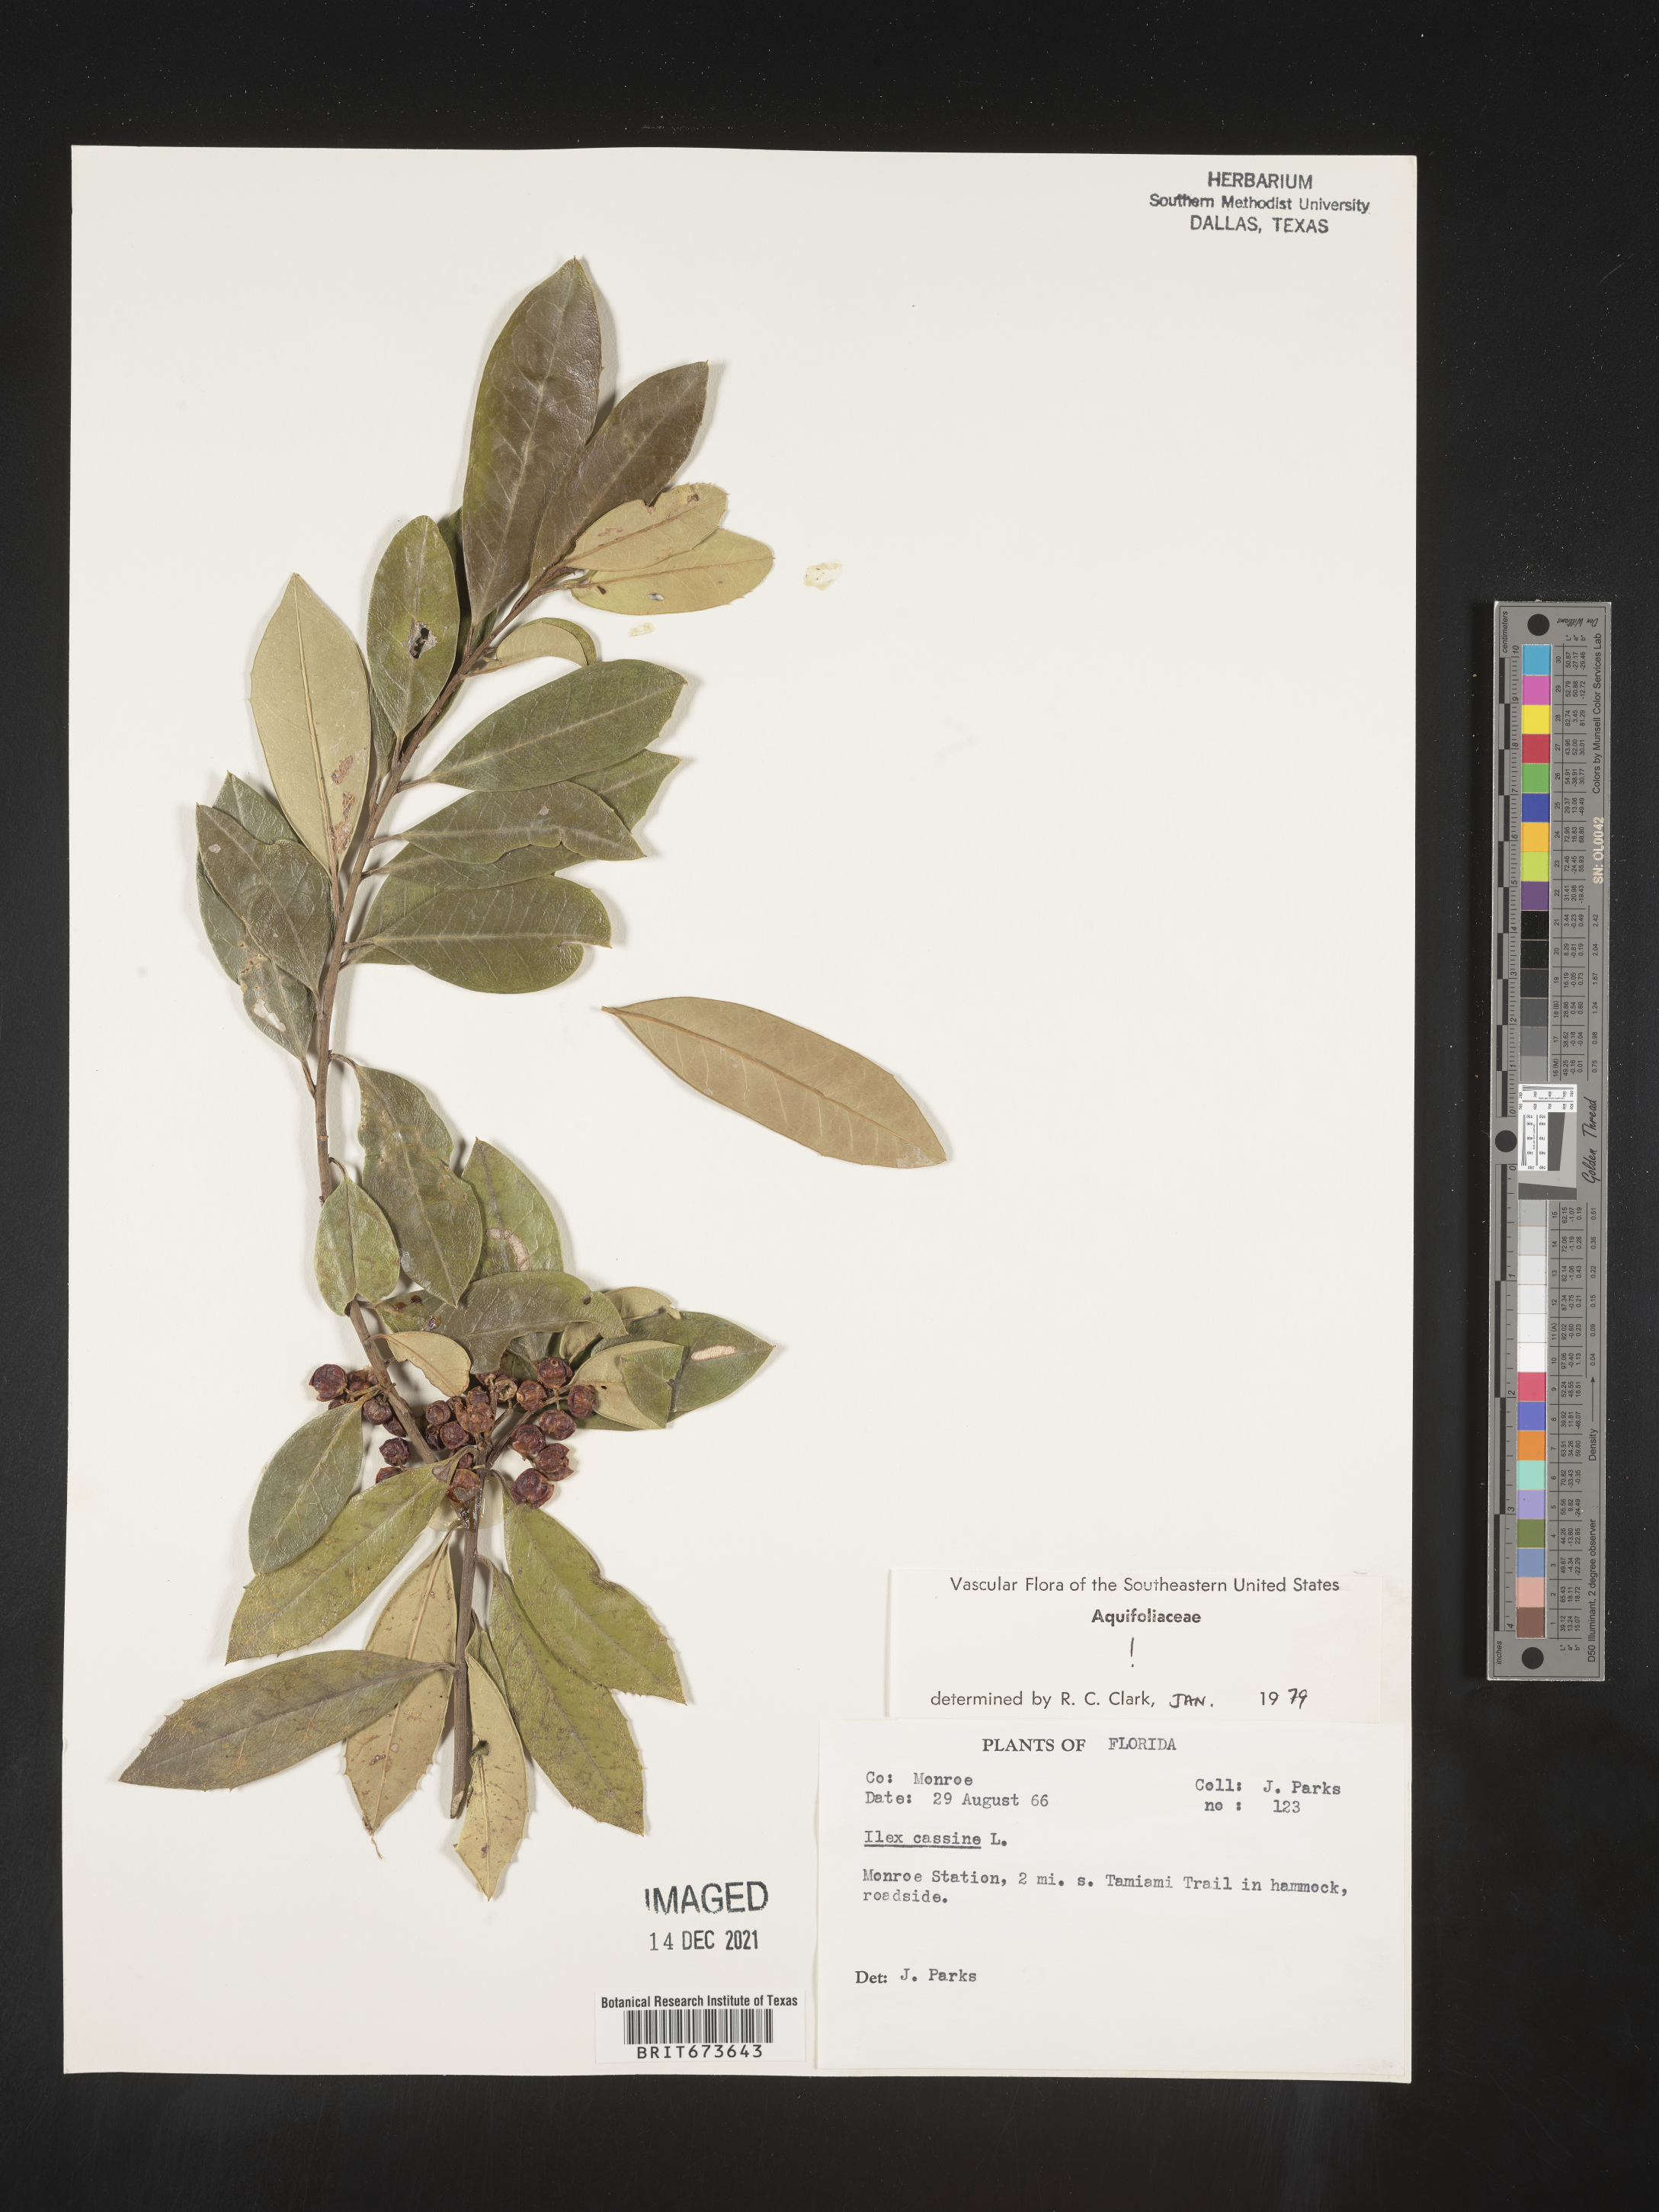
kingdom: Plantae
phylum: Tracheophyta
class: Magnoliopsida
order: Aquifoliales
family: Aquifoliaceae
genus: Ilex
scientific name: Ilex cassine
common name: Dahoon
